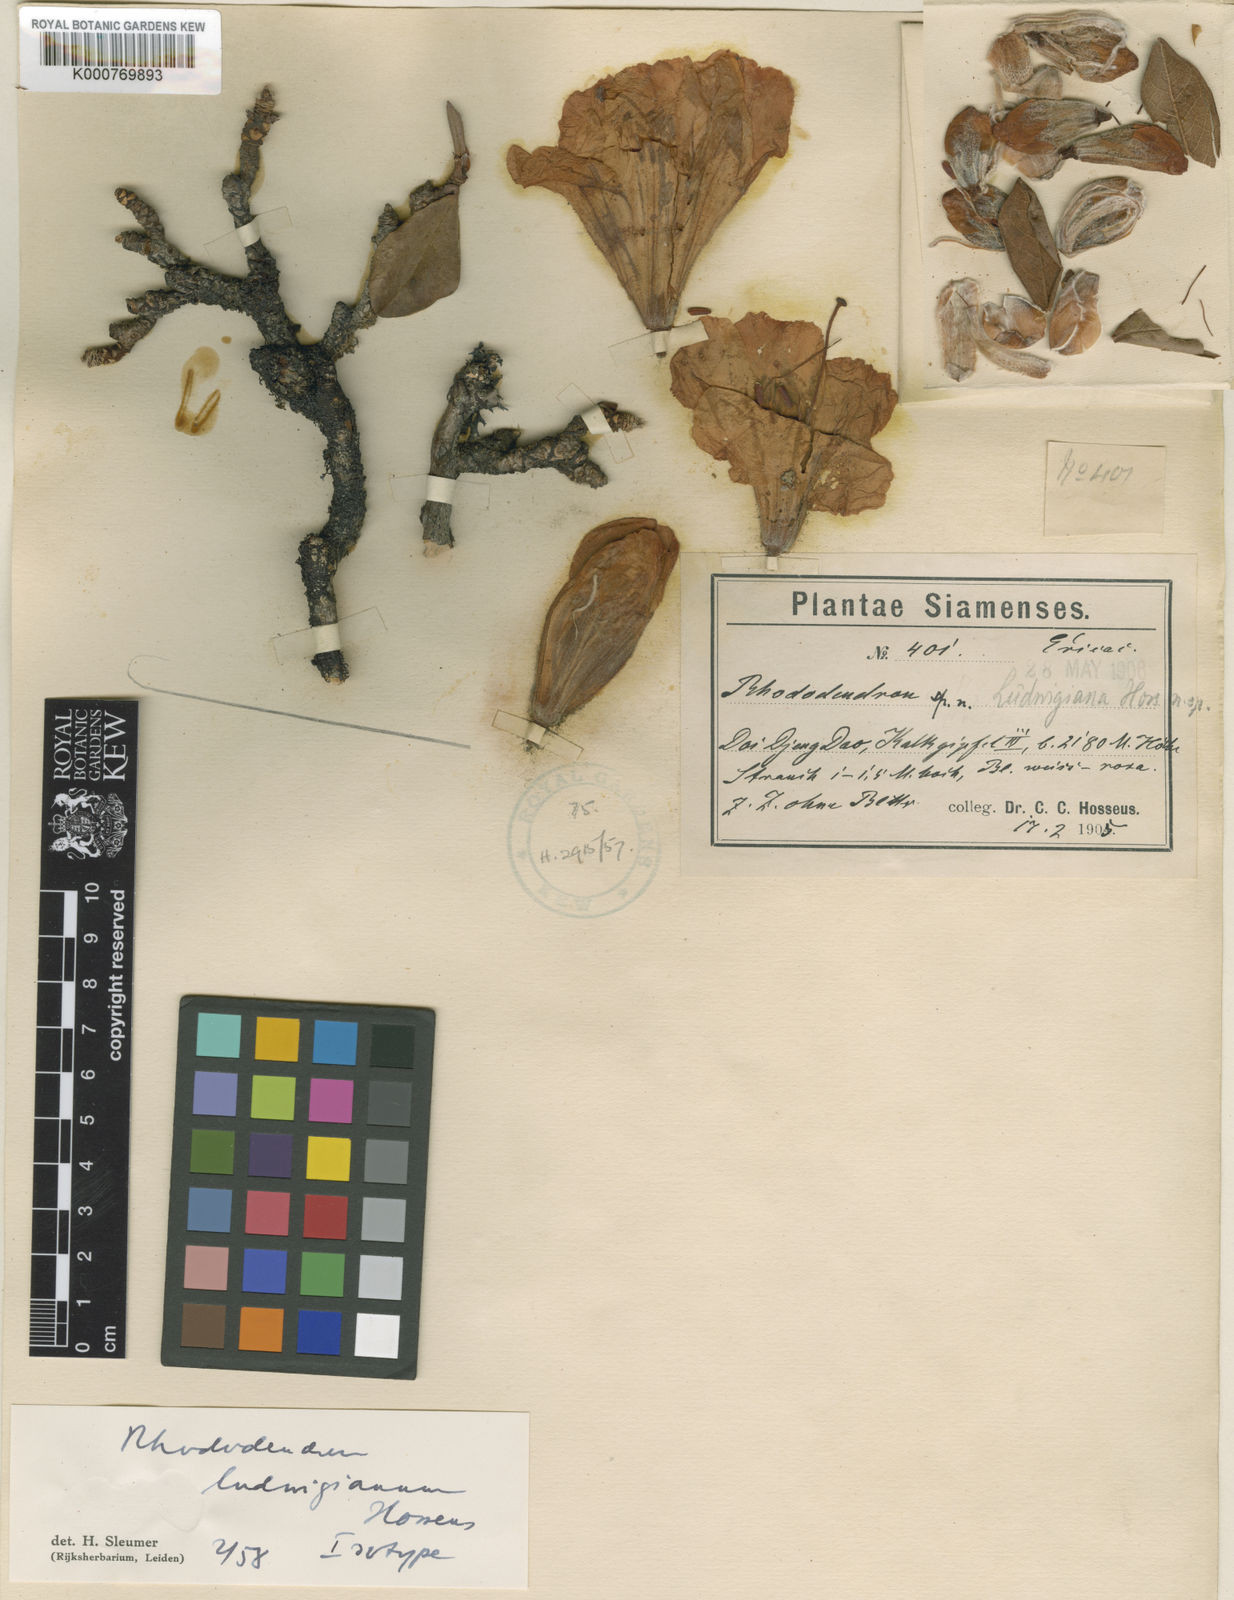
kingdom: Plantae
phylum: Tracheophyta
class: Magnoliopsida
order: Ericales
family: Ericaceae
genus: Rhododendron
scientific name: Rhododendron ciliicalyx
